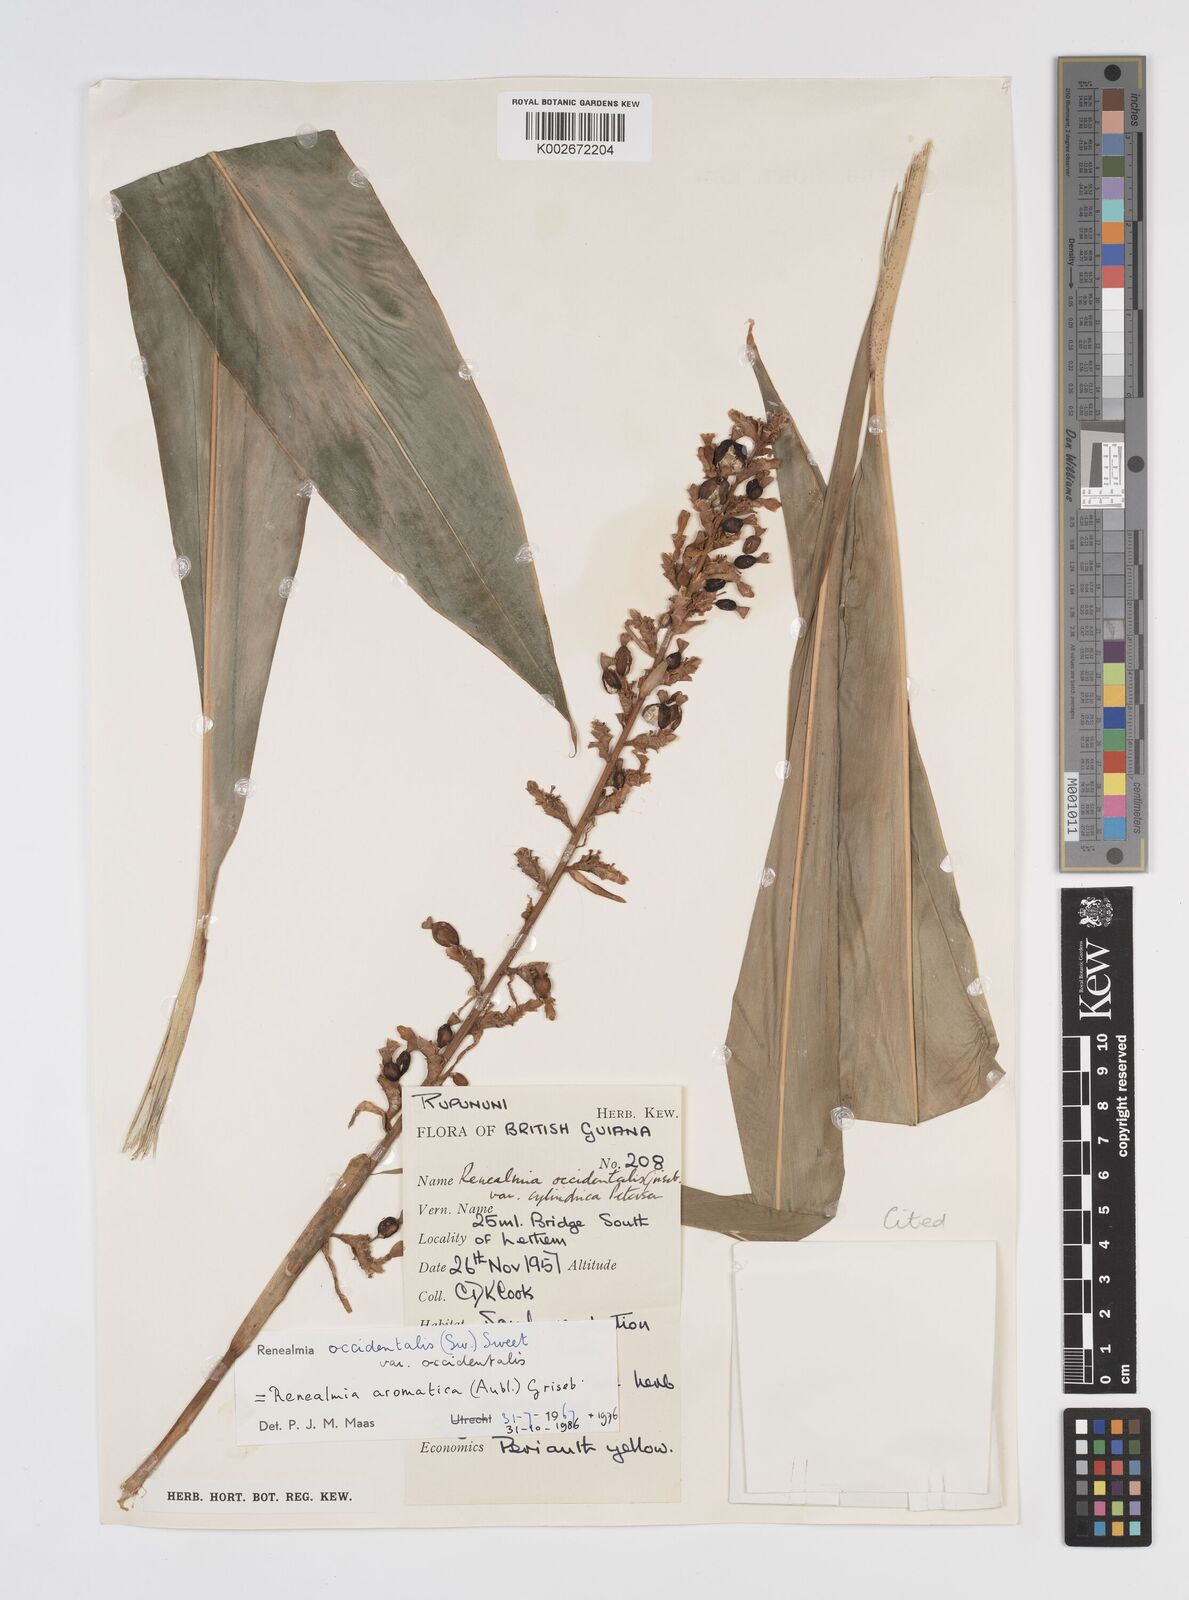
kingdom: Plantae
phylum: Tracheophyta
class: Liliopsida
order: Zingiberales
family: Zingiberaceae
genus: Renealmia
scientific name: Renealmia aromatica
